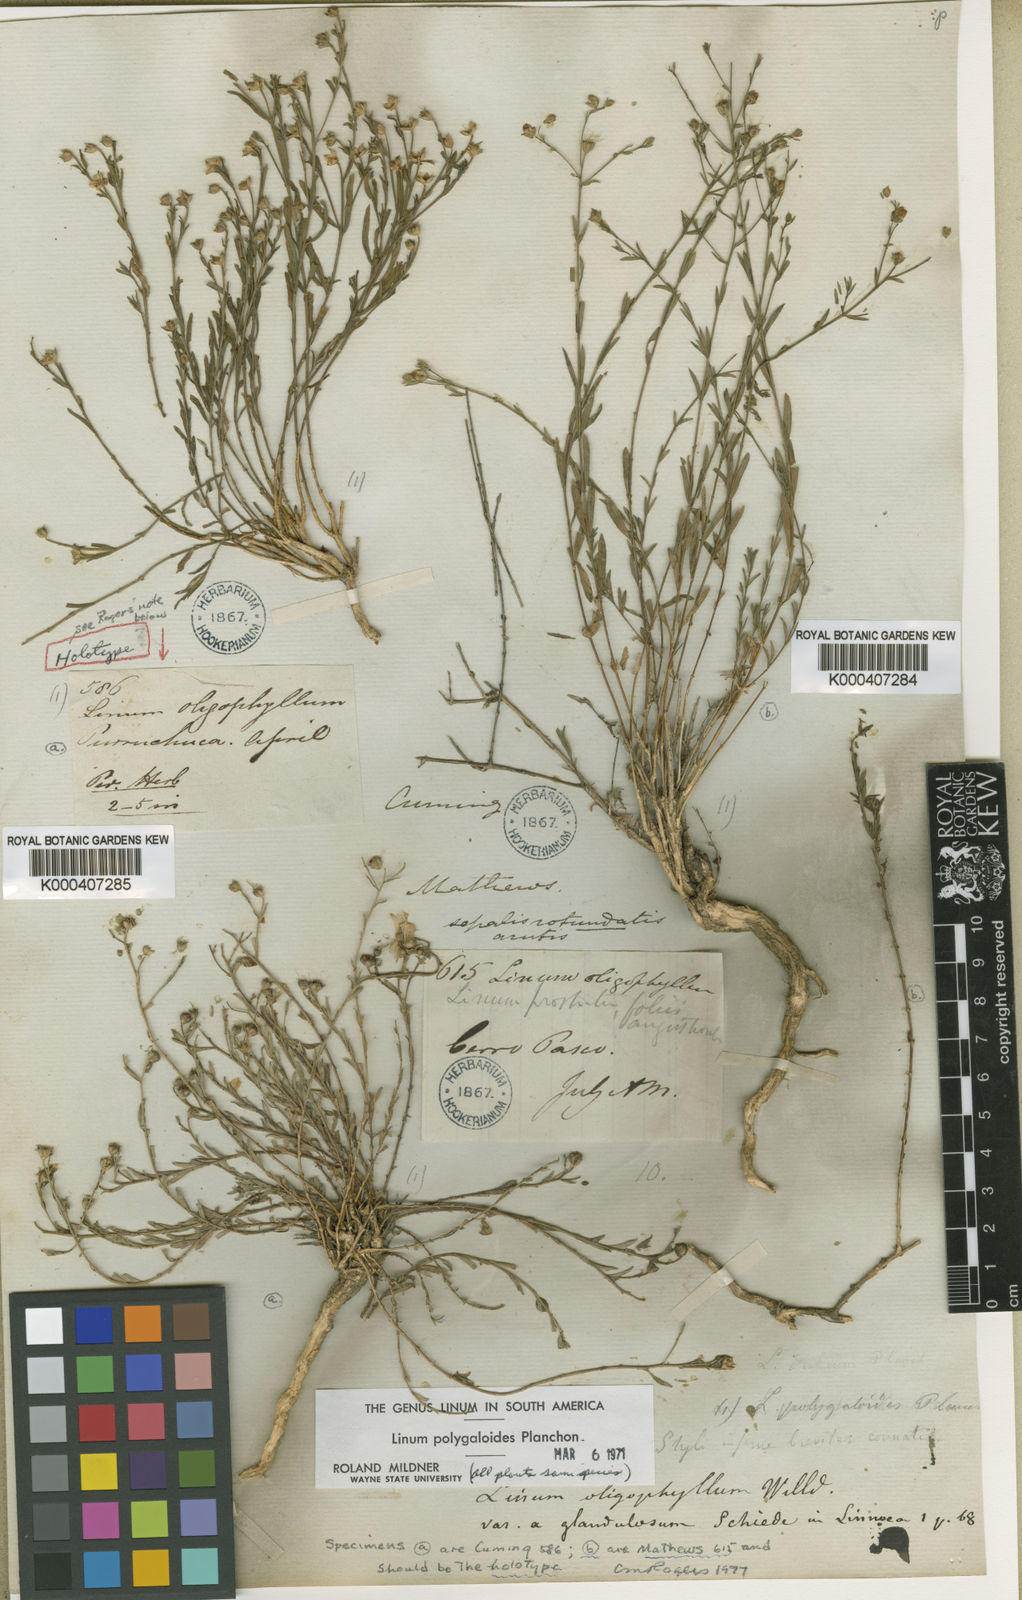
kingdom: Plantae
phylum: Tracheophyta
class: Magnoliopsida
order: Malpighiales
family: Linaceae
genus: Linum
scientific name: Linum polygaloides
